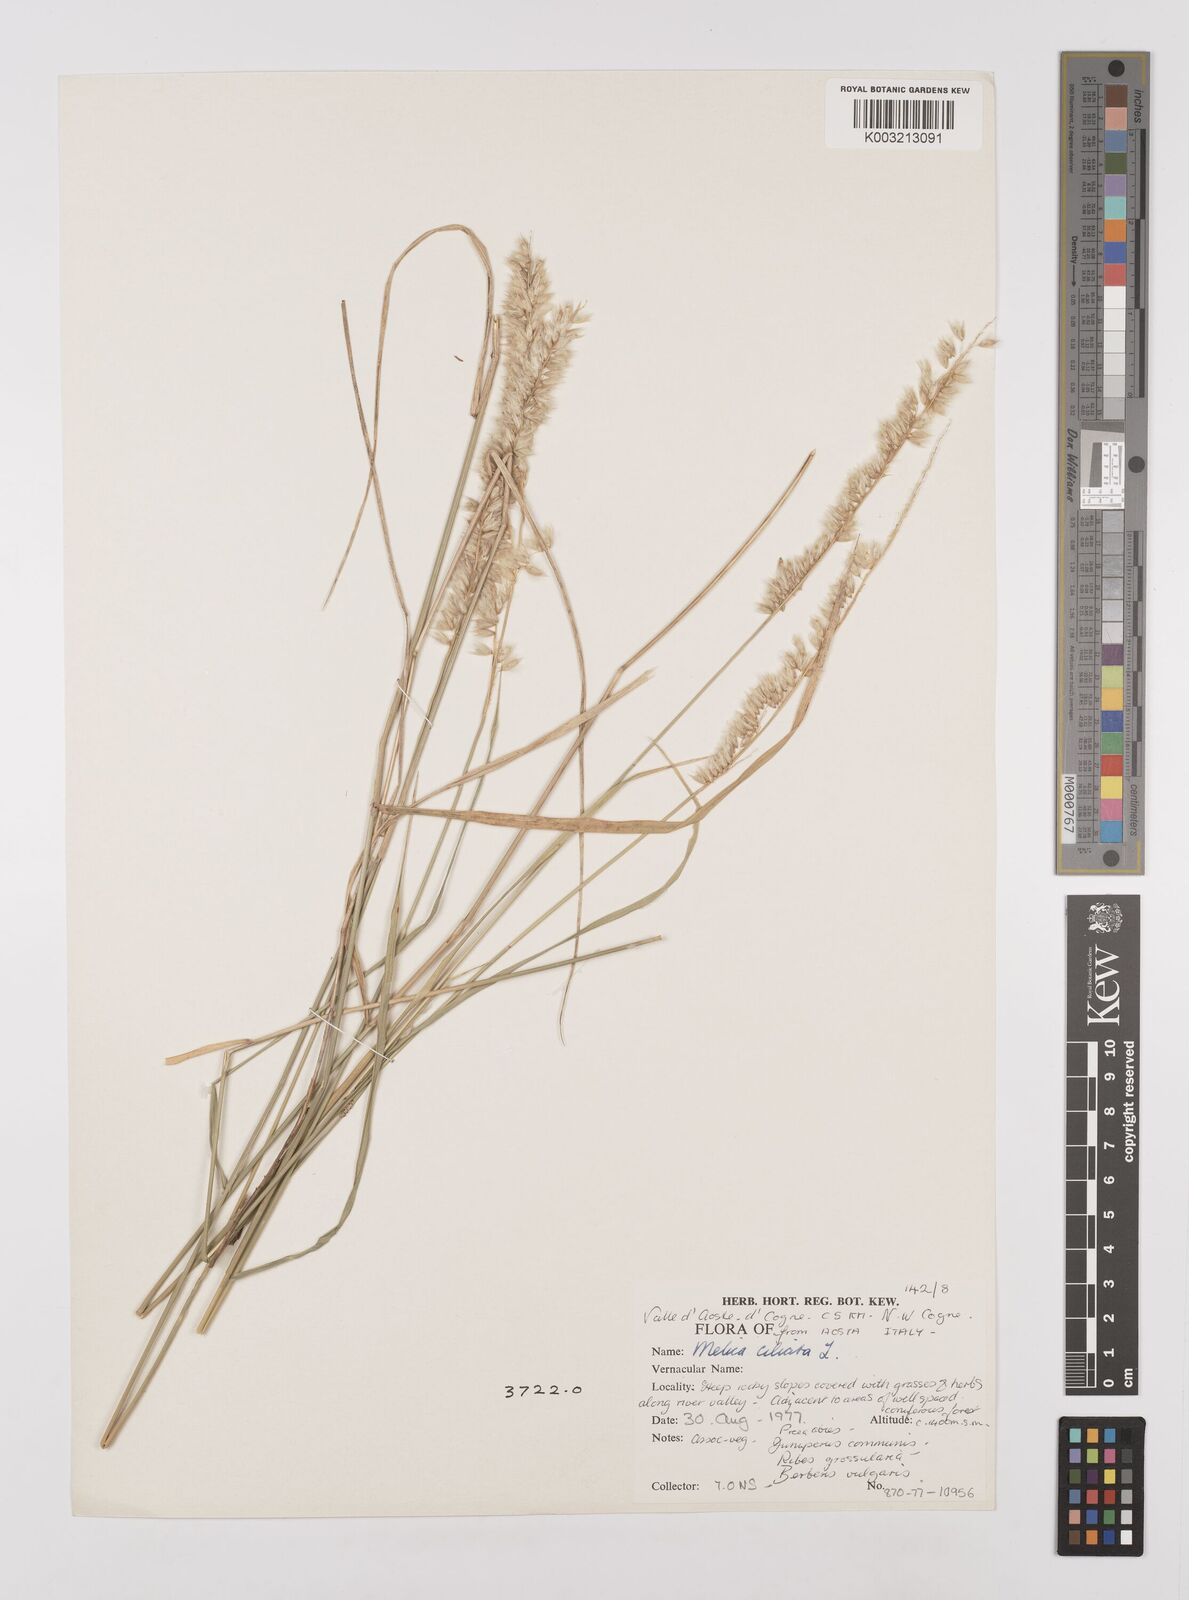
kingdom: Plantae
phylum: Tracheophyta
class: Liliopsida
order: Poales
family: Poaceae
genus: Melica
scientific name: Melica ciliata
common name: Hairy melicgrass
